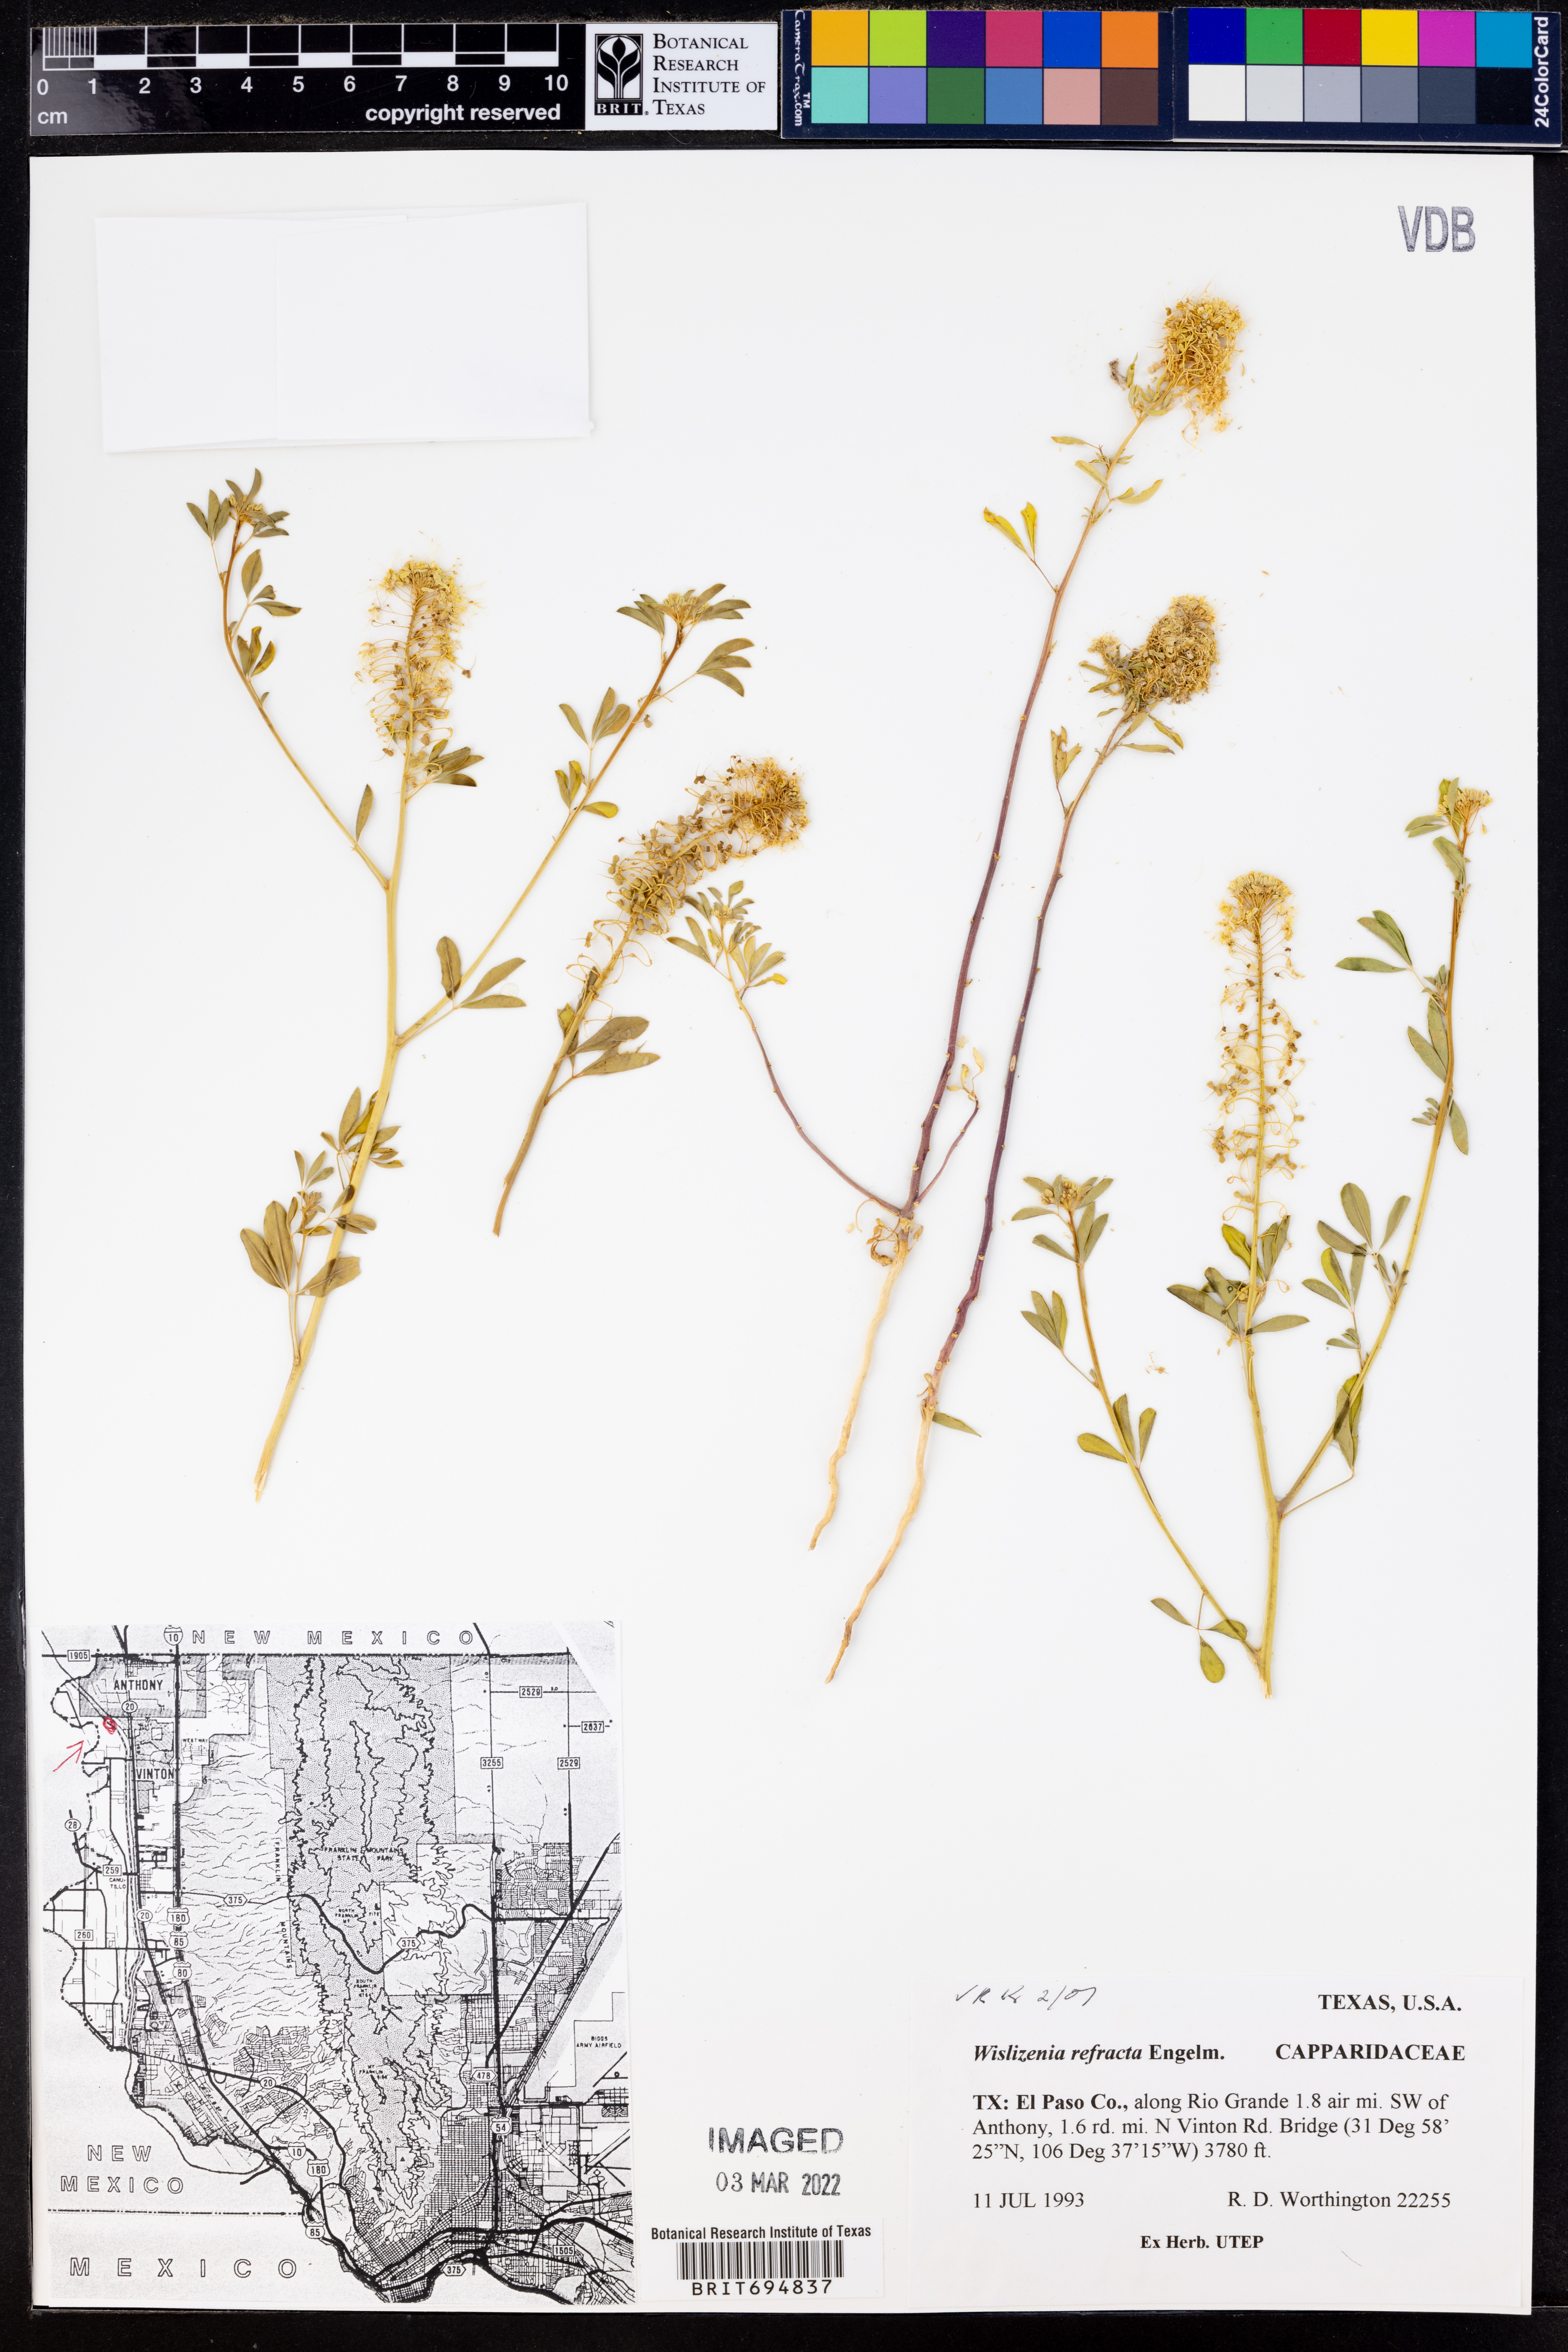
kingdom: Plantae
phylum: Tracheophyta
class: Magnoliopsida
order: Brassicales
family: Cleomaceae
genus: Cleomella
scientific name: Cleomella refracta
